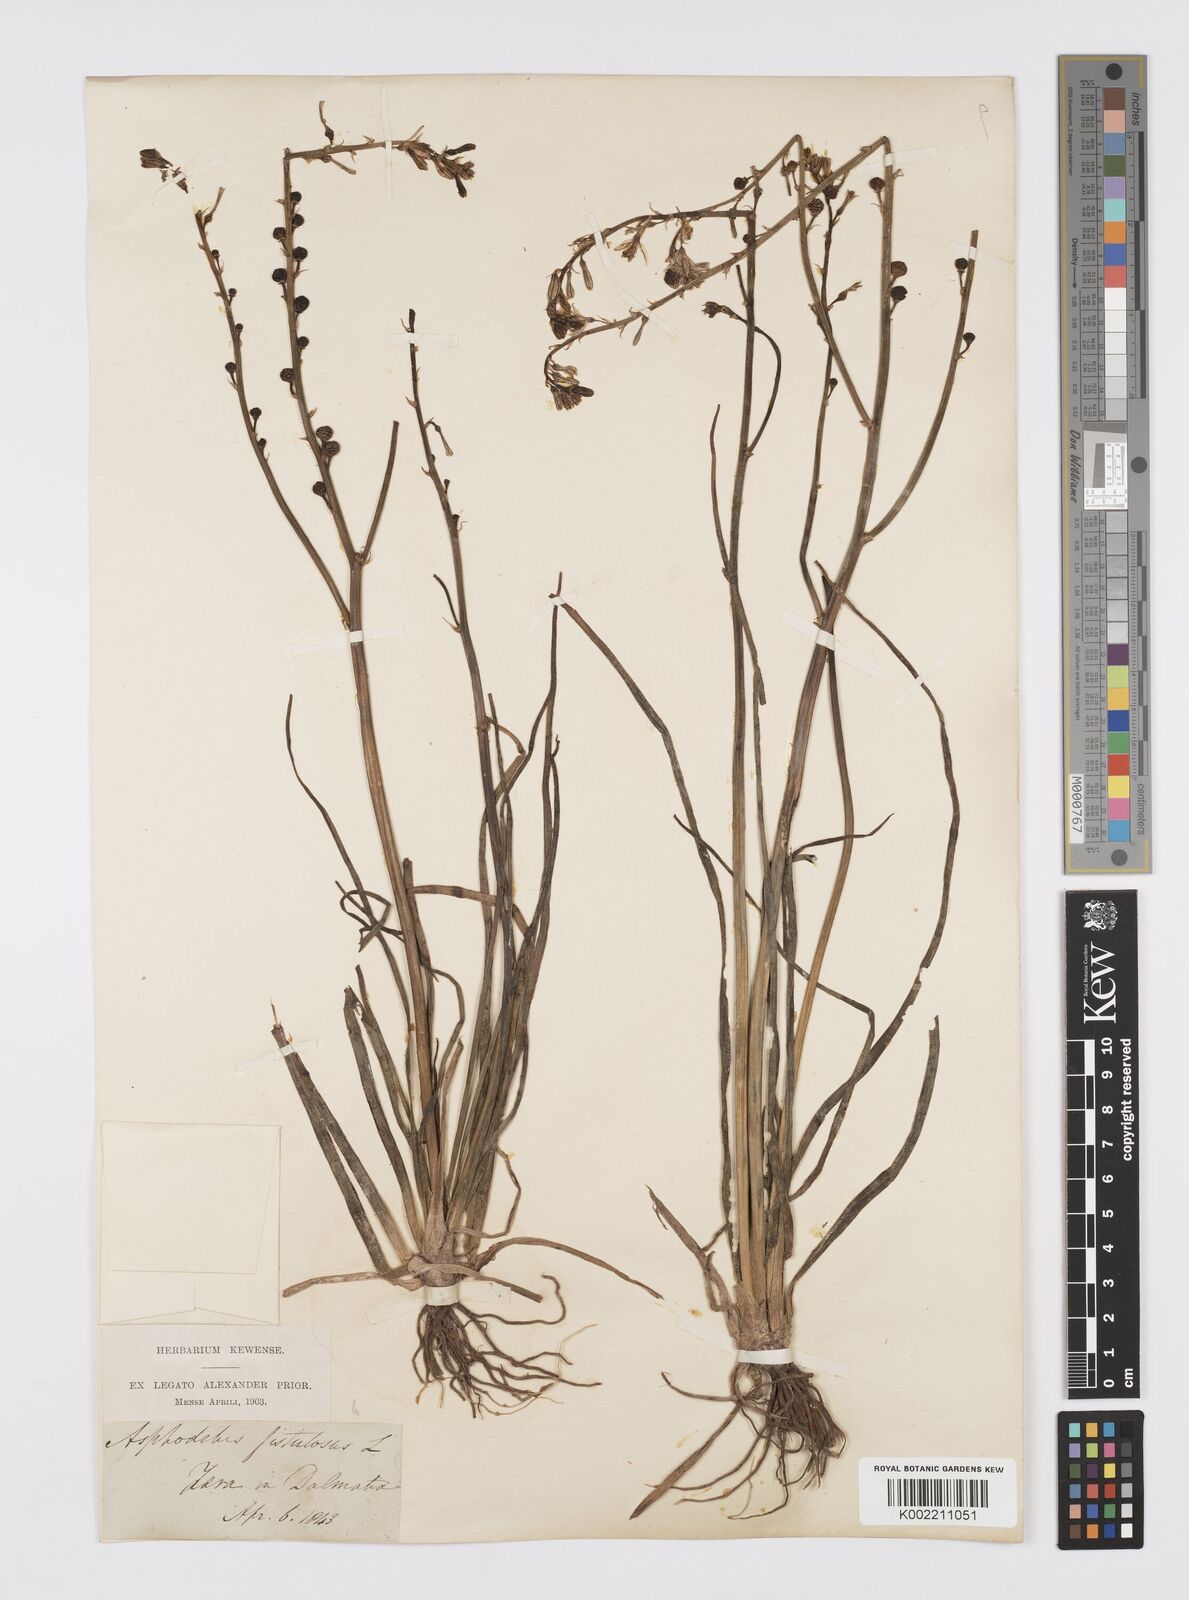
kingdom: Plantae
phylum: Tracheophyta
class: Liliopsida
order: Asparagales
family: Asphodelaceae
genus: Asphodelus
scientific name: Asphodelus fistulosus
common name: Onionweed
